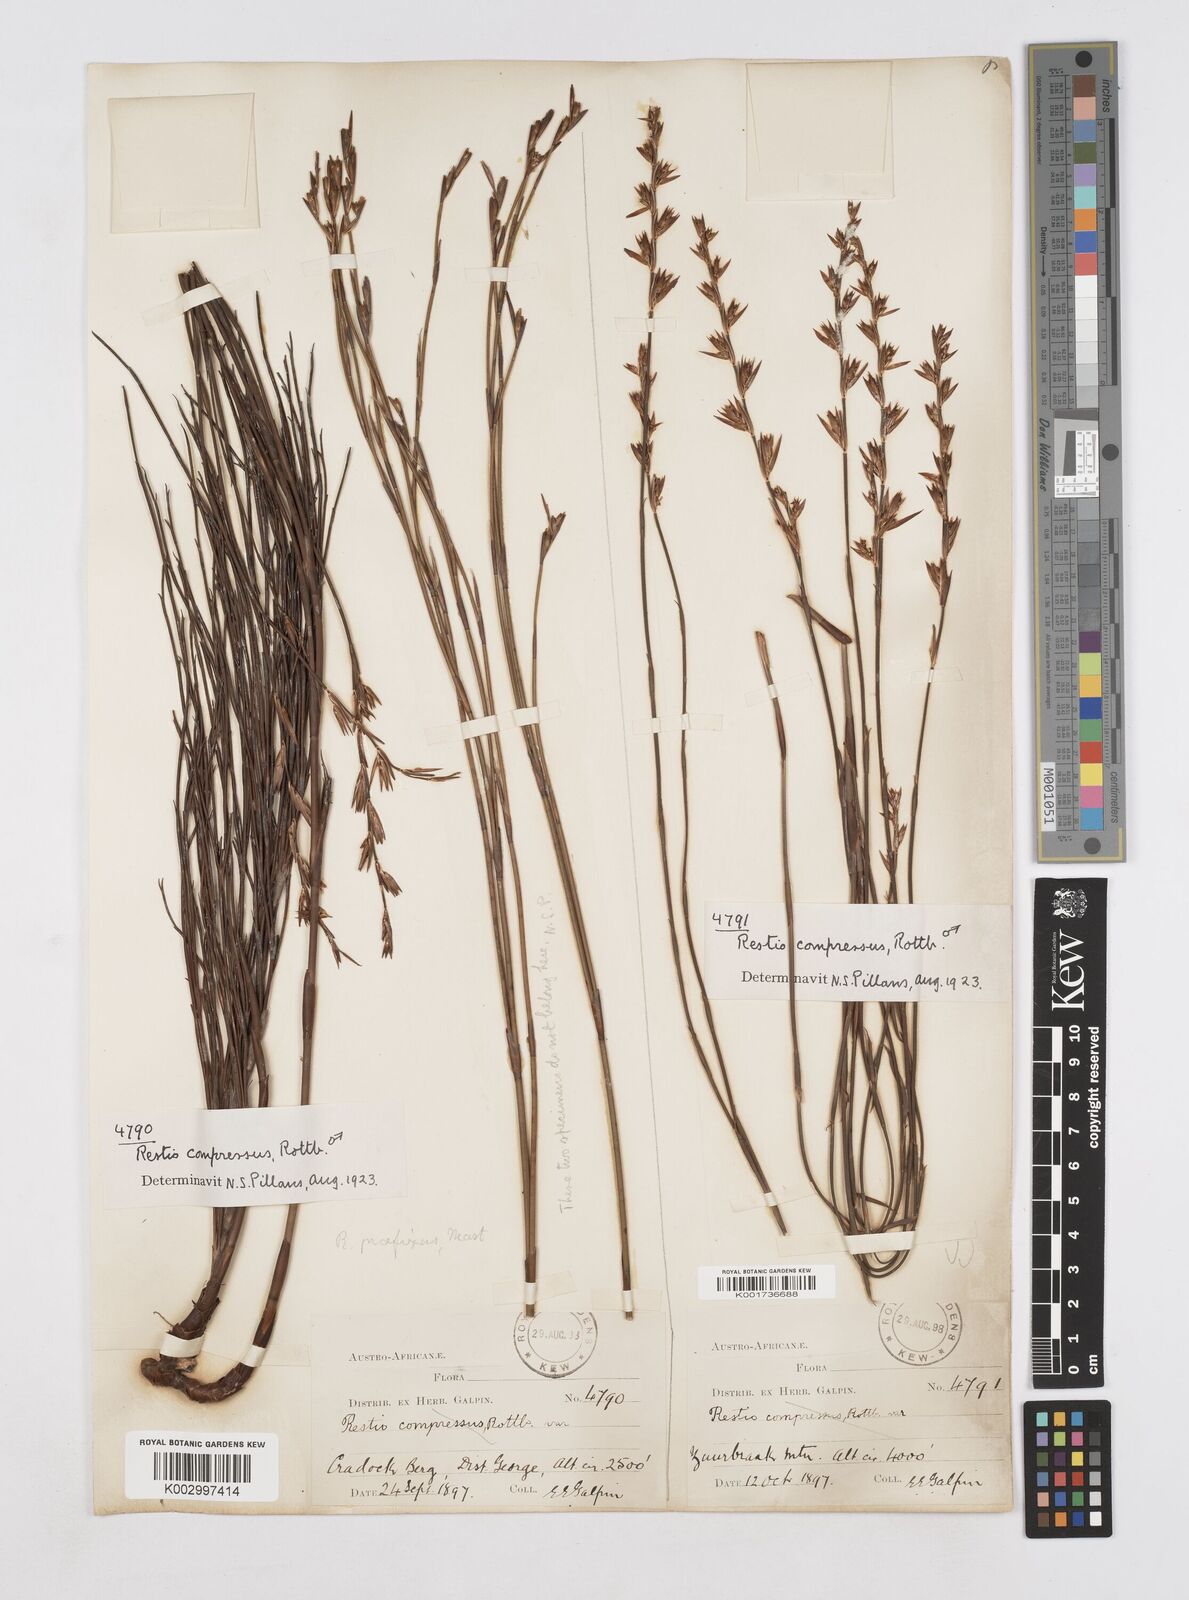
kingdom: Plantae
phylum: Tracheophyta
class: Liliopsida
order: Poales
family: Restionaceae
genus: Platycaulos
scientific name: Platycaulos compressus
